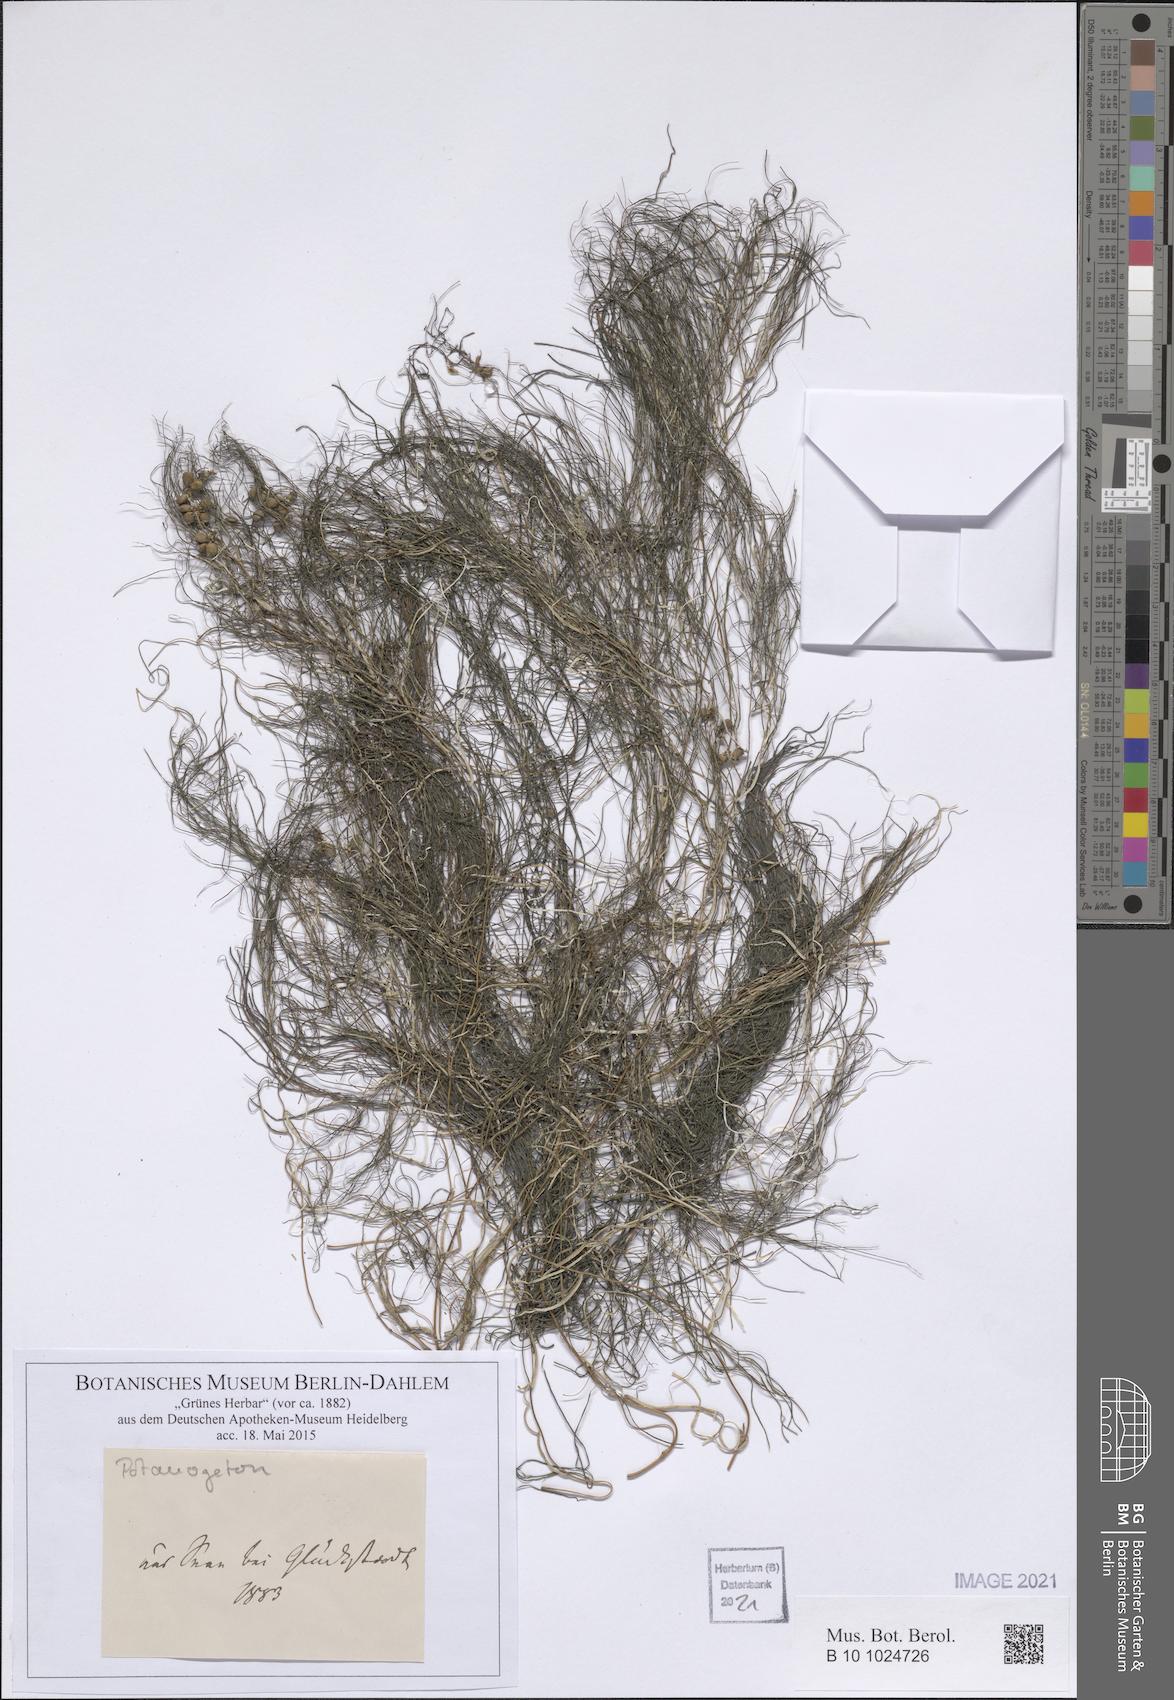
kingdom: Plantae
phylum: Tracheophyta
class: Liliopsida
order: Alismatales
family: Potamogetonaceae
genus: Potamogeton
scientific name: Potamogeton
